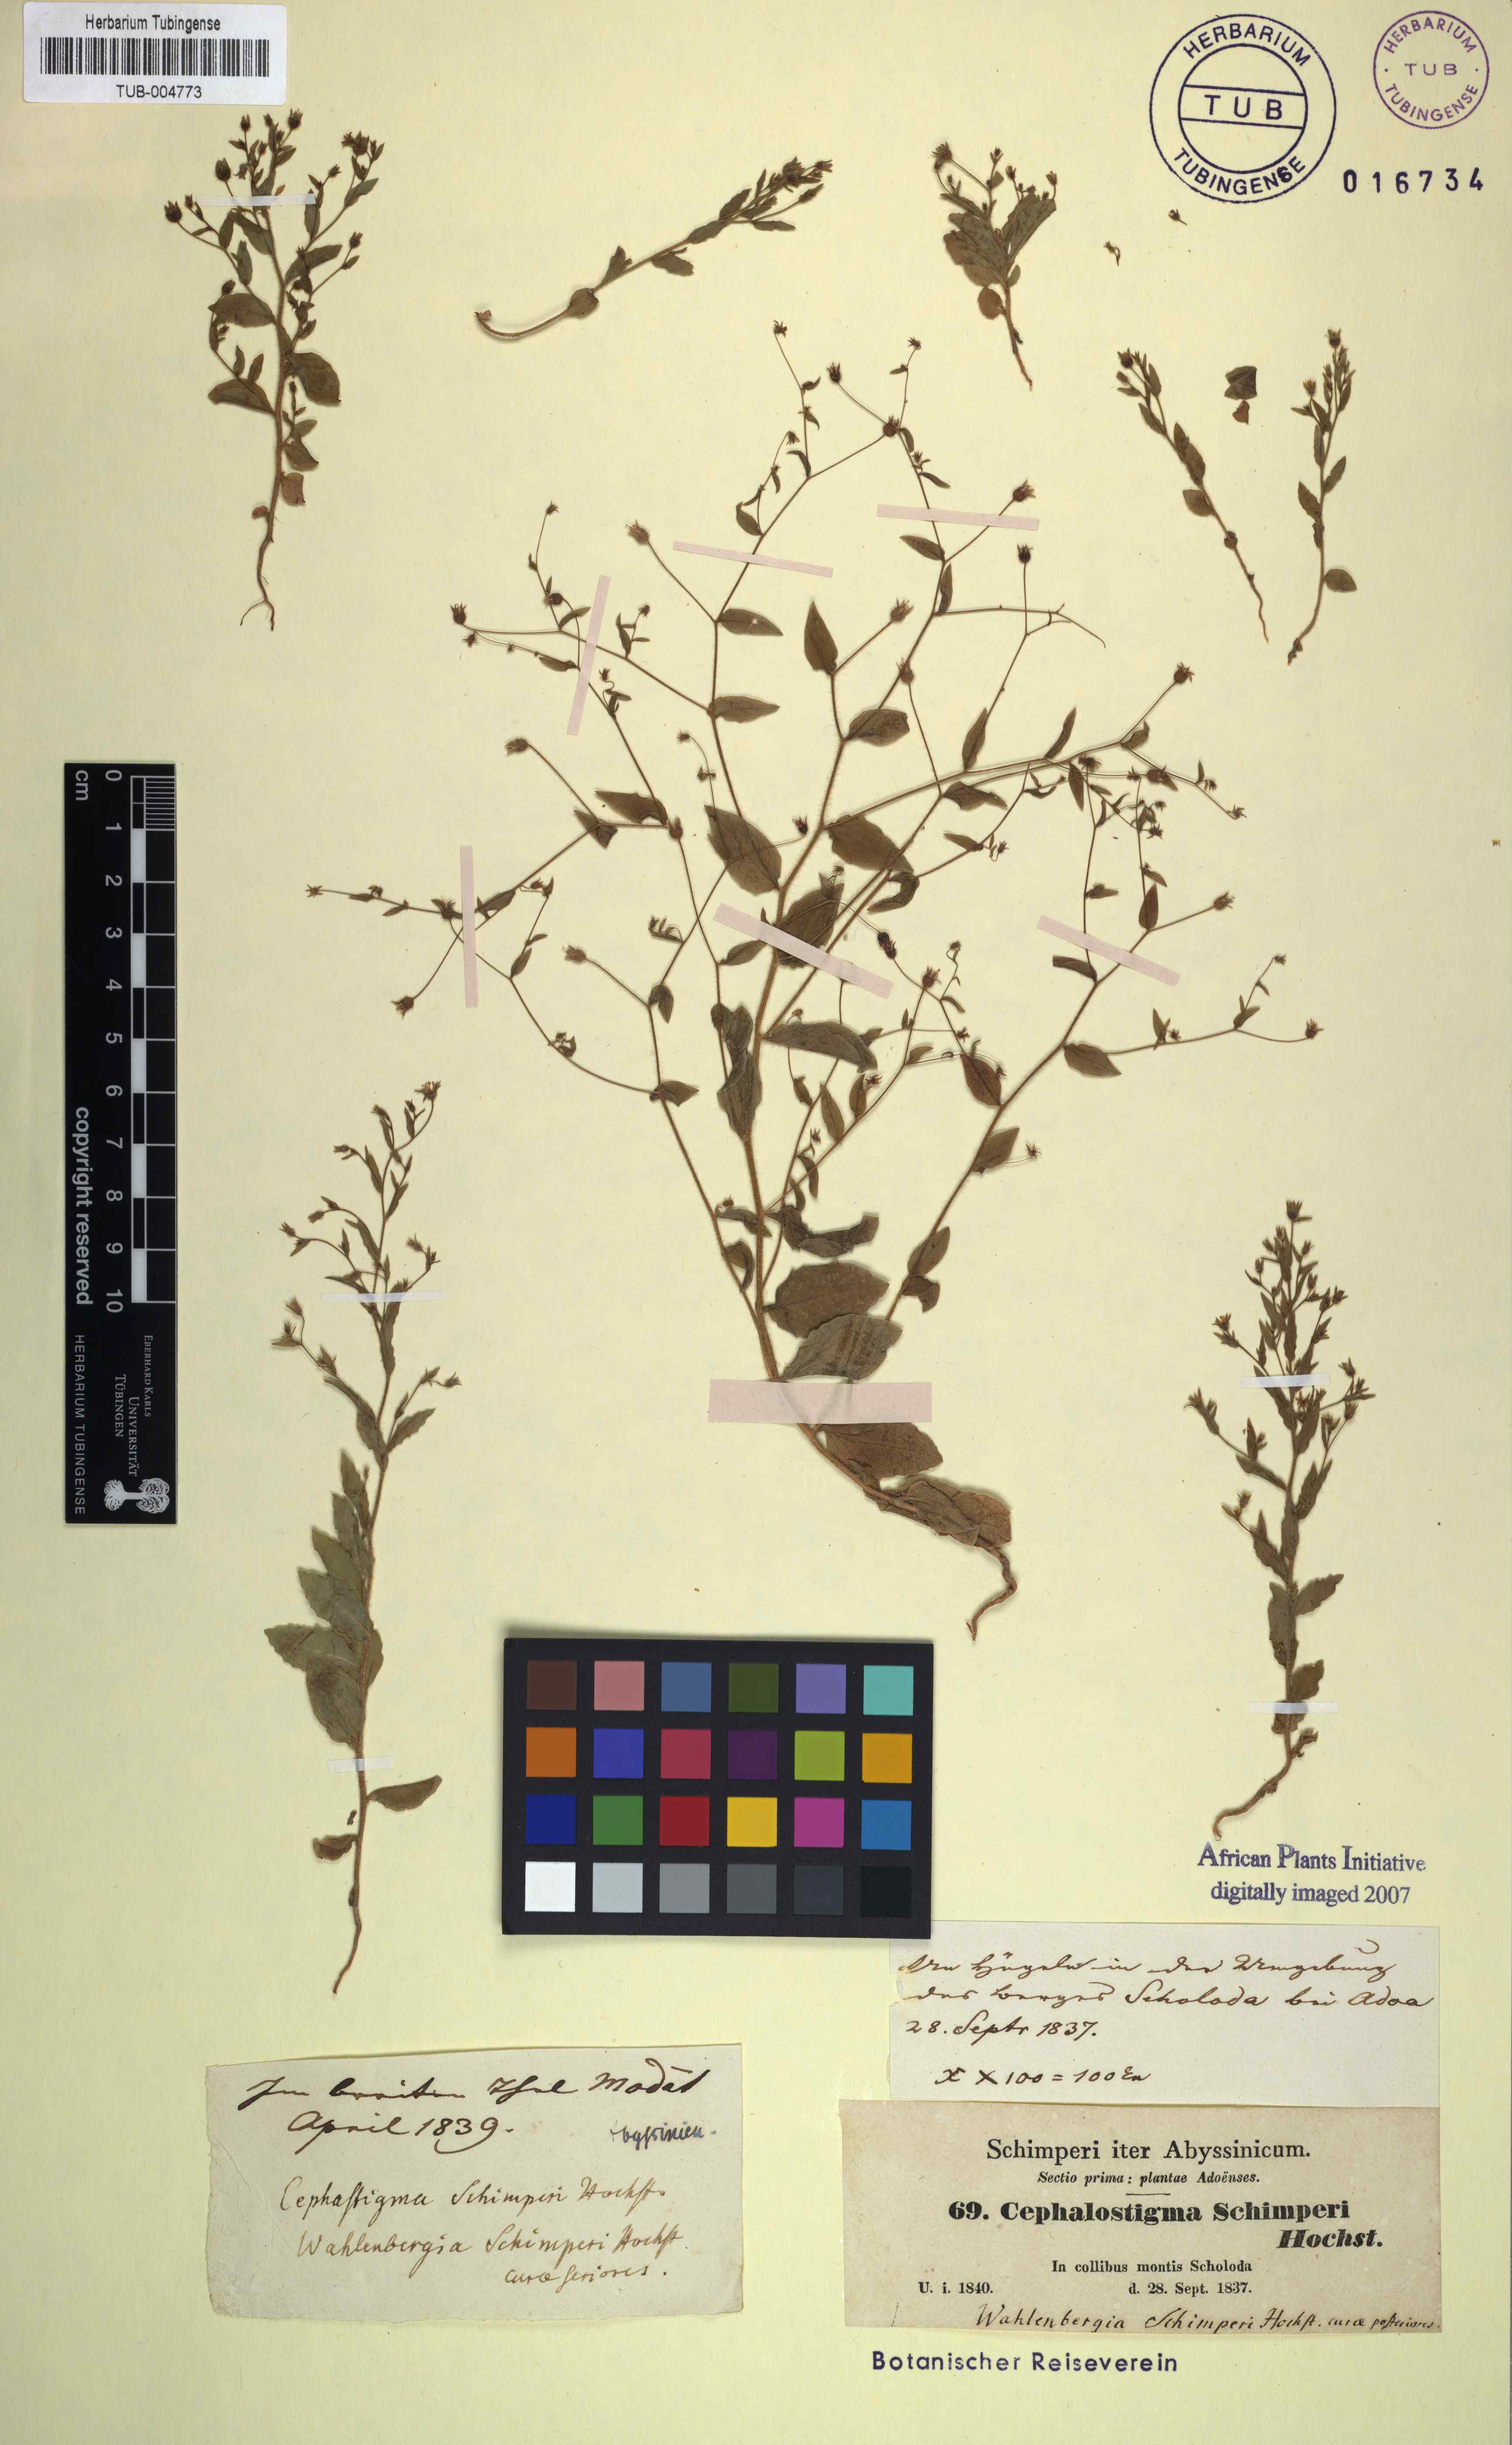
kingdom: Plantae
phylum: Tracheophyta
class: Magnoliopsida
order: Asterales
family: Campanulaceae
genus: Wahlenbergia
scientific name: Wahlenbergia erecta
